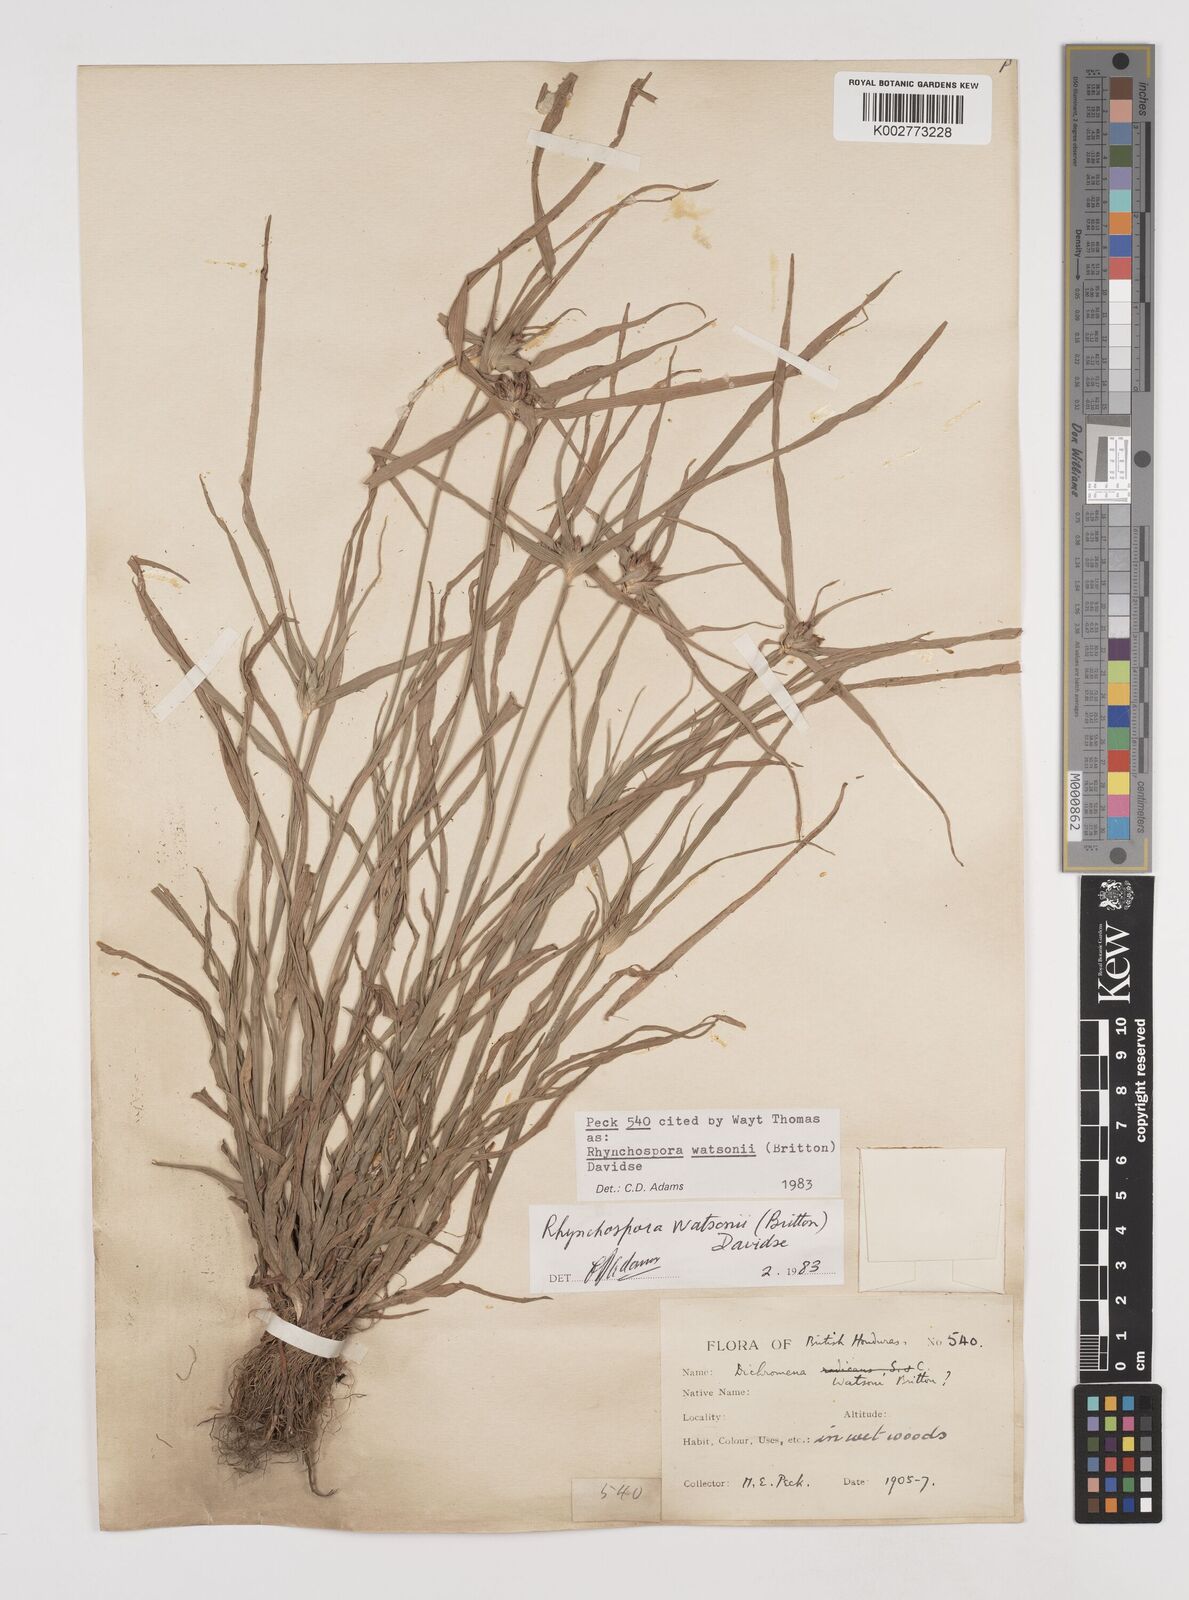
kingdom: Plantae
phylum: Tracheophyta
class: Liliopsida
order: Poales
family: Cyperaceae
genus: Rhynchospora
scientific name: Rhynchospora watsonii
